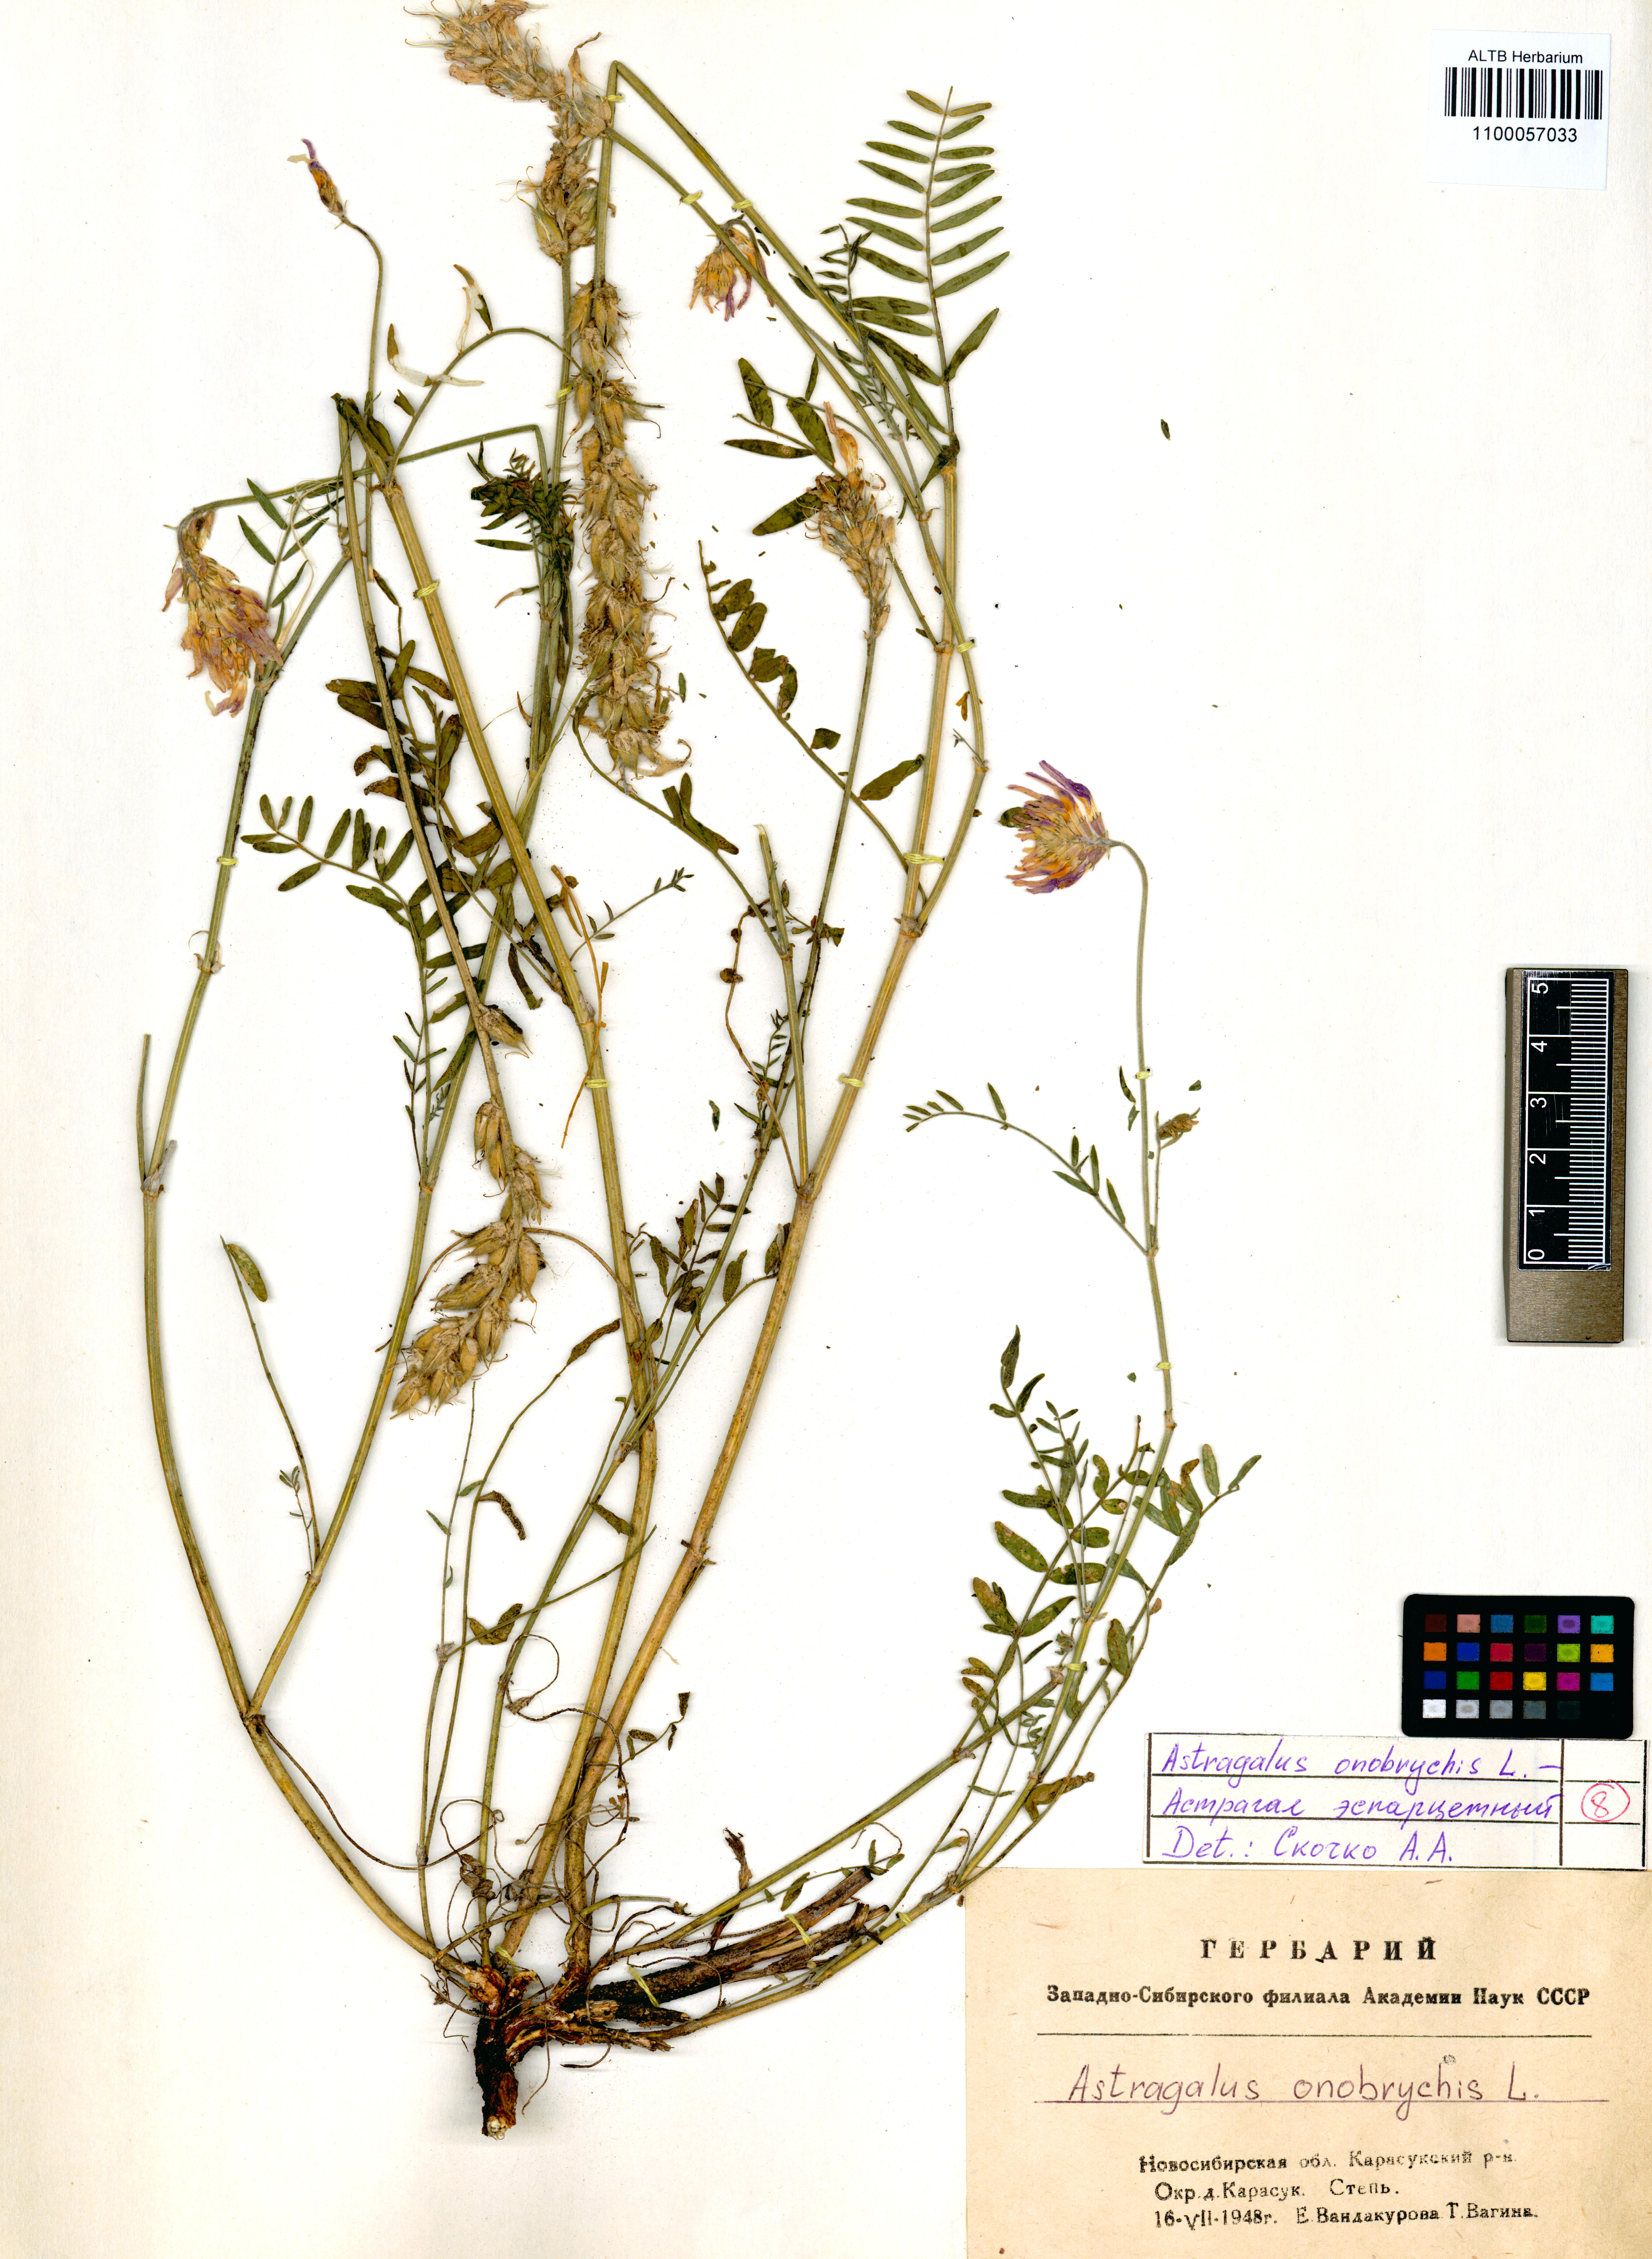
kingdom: Plantae
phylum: Tracheophyta
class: Magnoliopsida
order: Fabales
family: Fabaceae
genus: Astragalus
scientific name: Astragalus onobrychis
